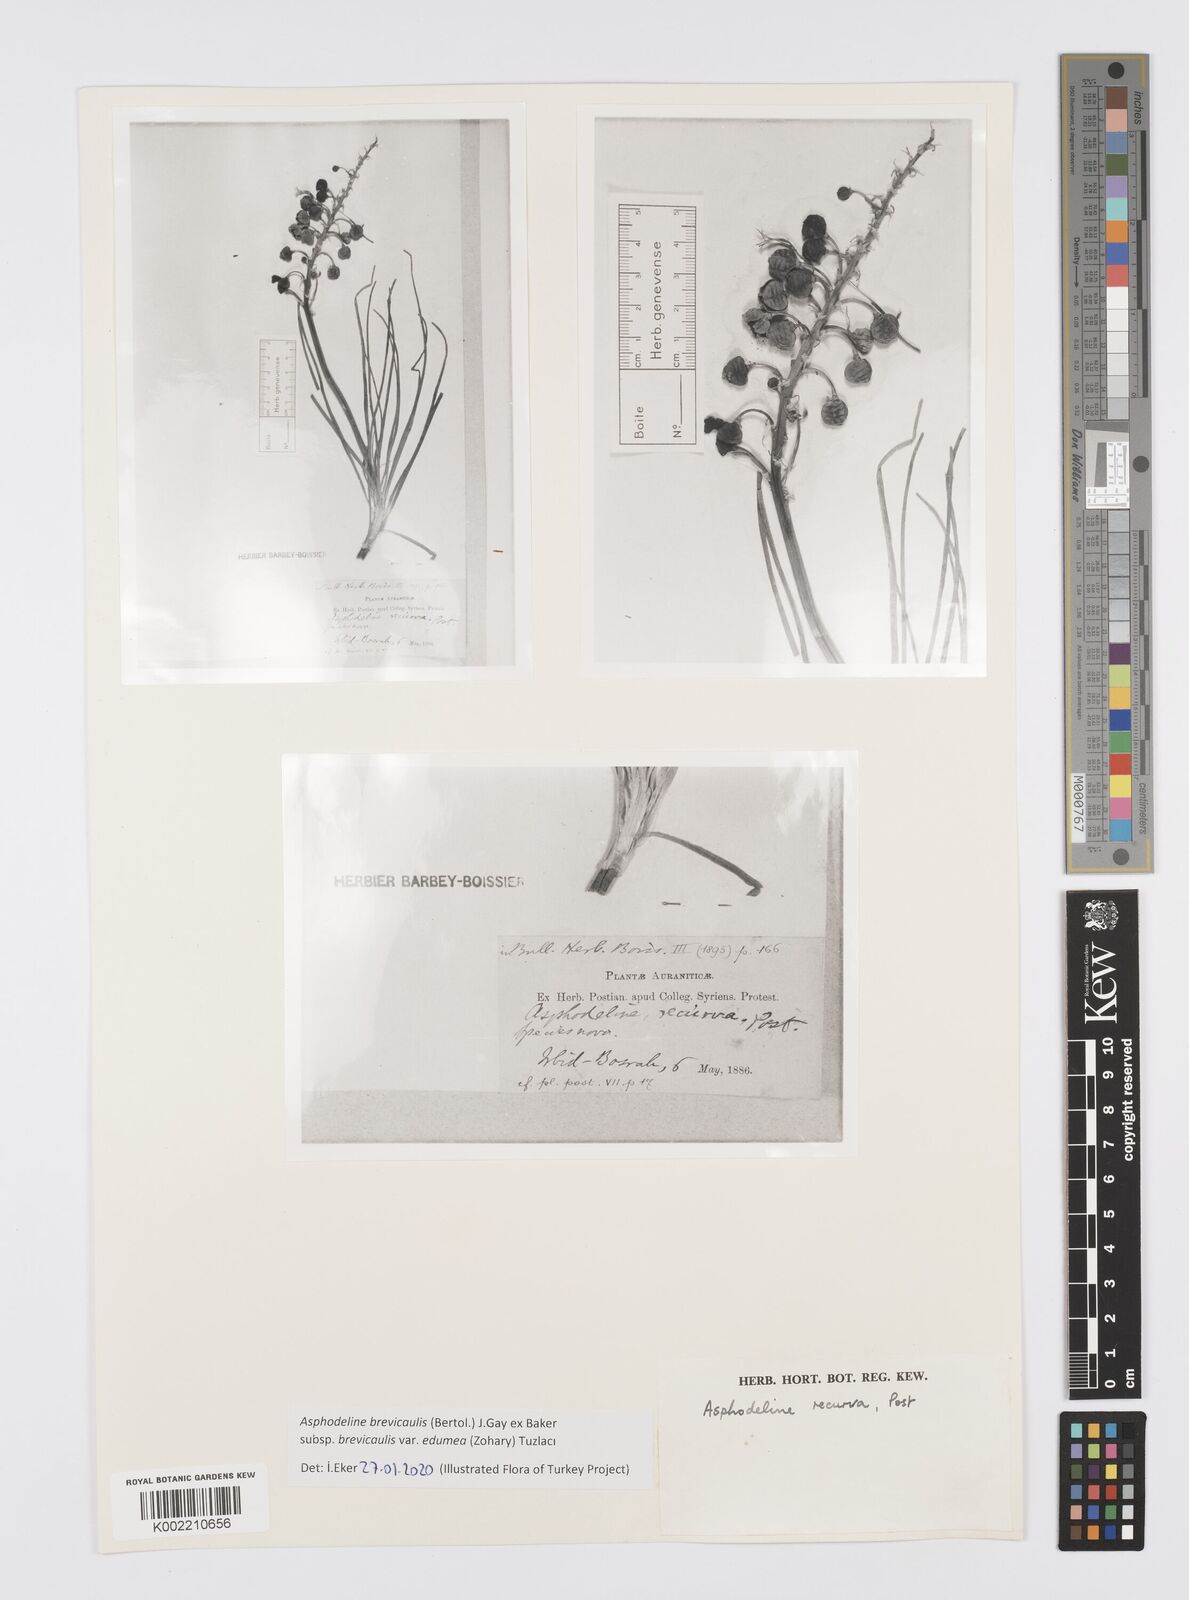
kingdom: Plantae
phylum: Tracheophyta
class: Liliopsida
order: Asparagales
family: Asphodelaceae
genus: Asphodeline
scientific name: Asphodeline brevicaulis
